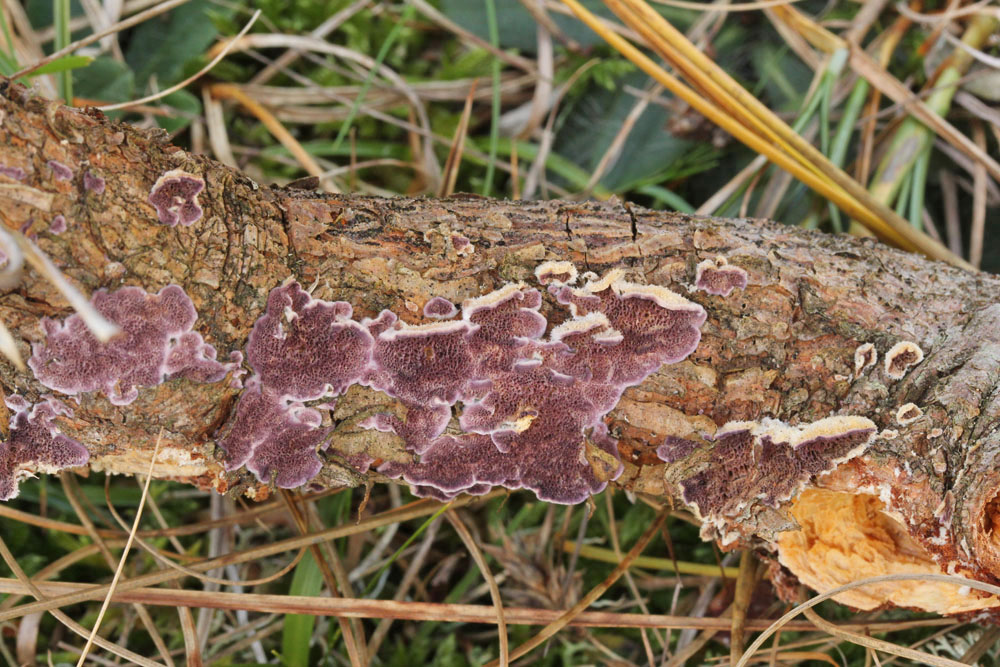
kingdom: Fungi
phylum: Basidiomycota
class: Agaricomycetes
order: Hymenochaetales
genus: Trichaptum
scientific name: Trichaptum abietinum
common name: almindelig violporesvamp
